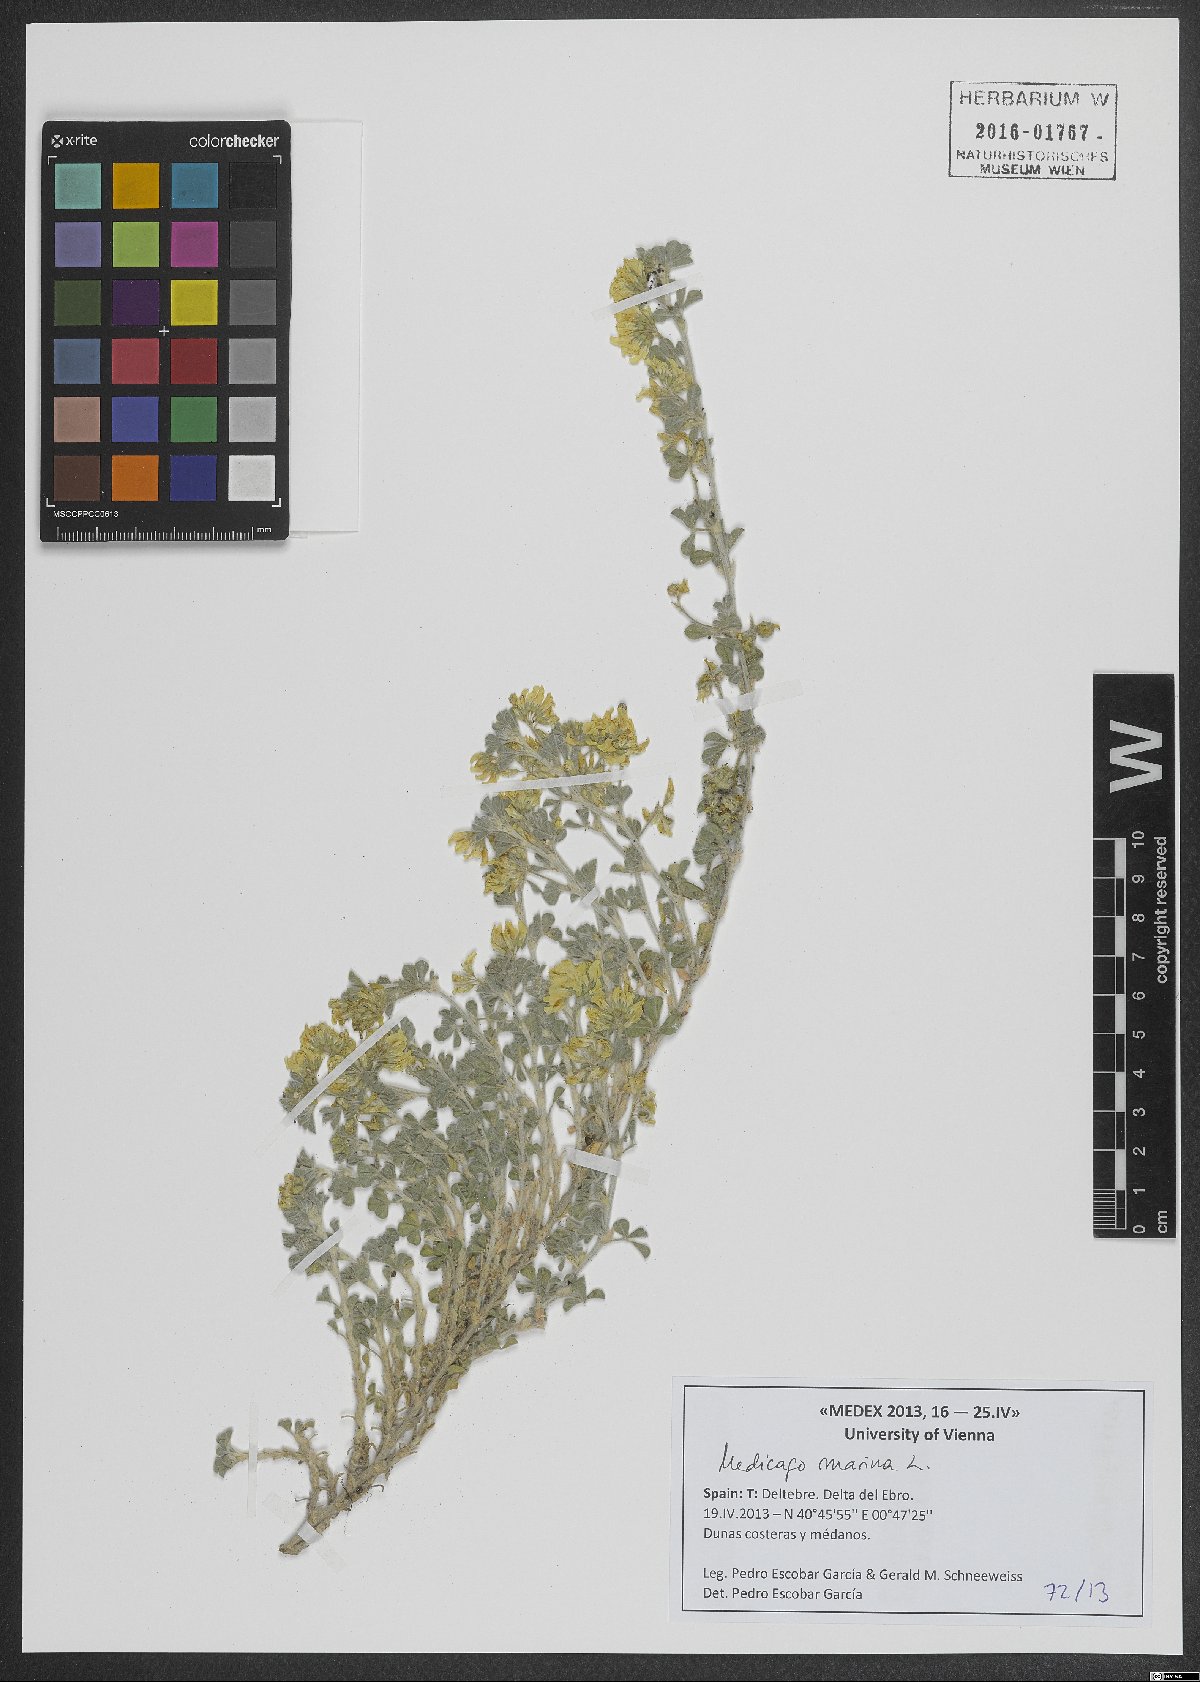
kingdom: Plantae
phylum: Tracheophyta
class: Magnoliopsida
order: Fabales
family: Fabaceae
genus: Medicago
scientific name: Medicago marina
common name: Sea medick
